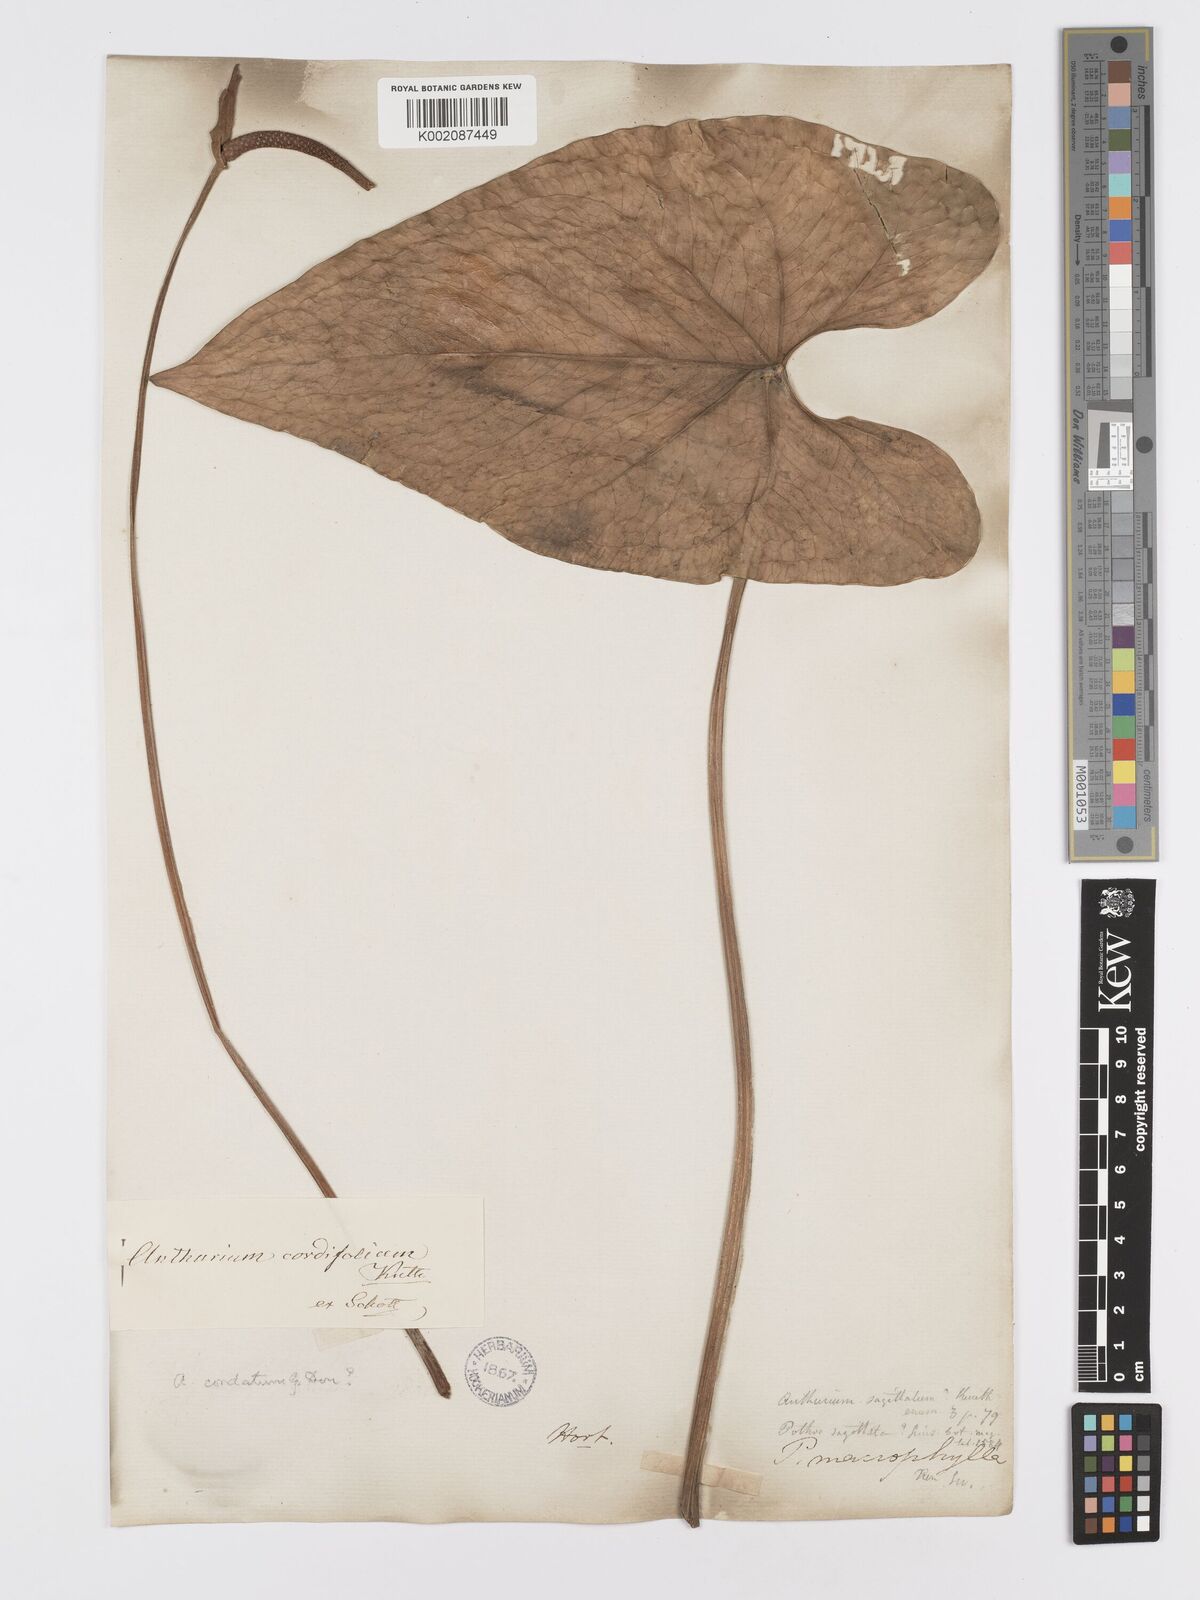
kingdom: Plantae
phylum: Tracheophyta
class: Liliopsida
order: Alismatales
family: Araceae
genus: Anthurium
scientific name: Anthurium
